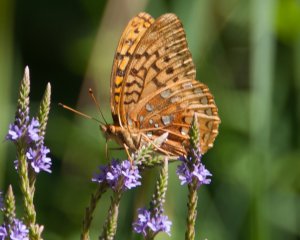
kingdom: Animalia
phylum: Arthropoda
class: Insecta
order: Lepidoptera
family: Nymphalidae
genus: Speyeria
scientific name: Speyeria cybele
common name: Great Spangled Fritillary
